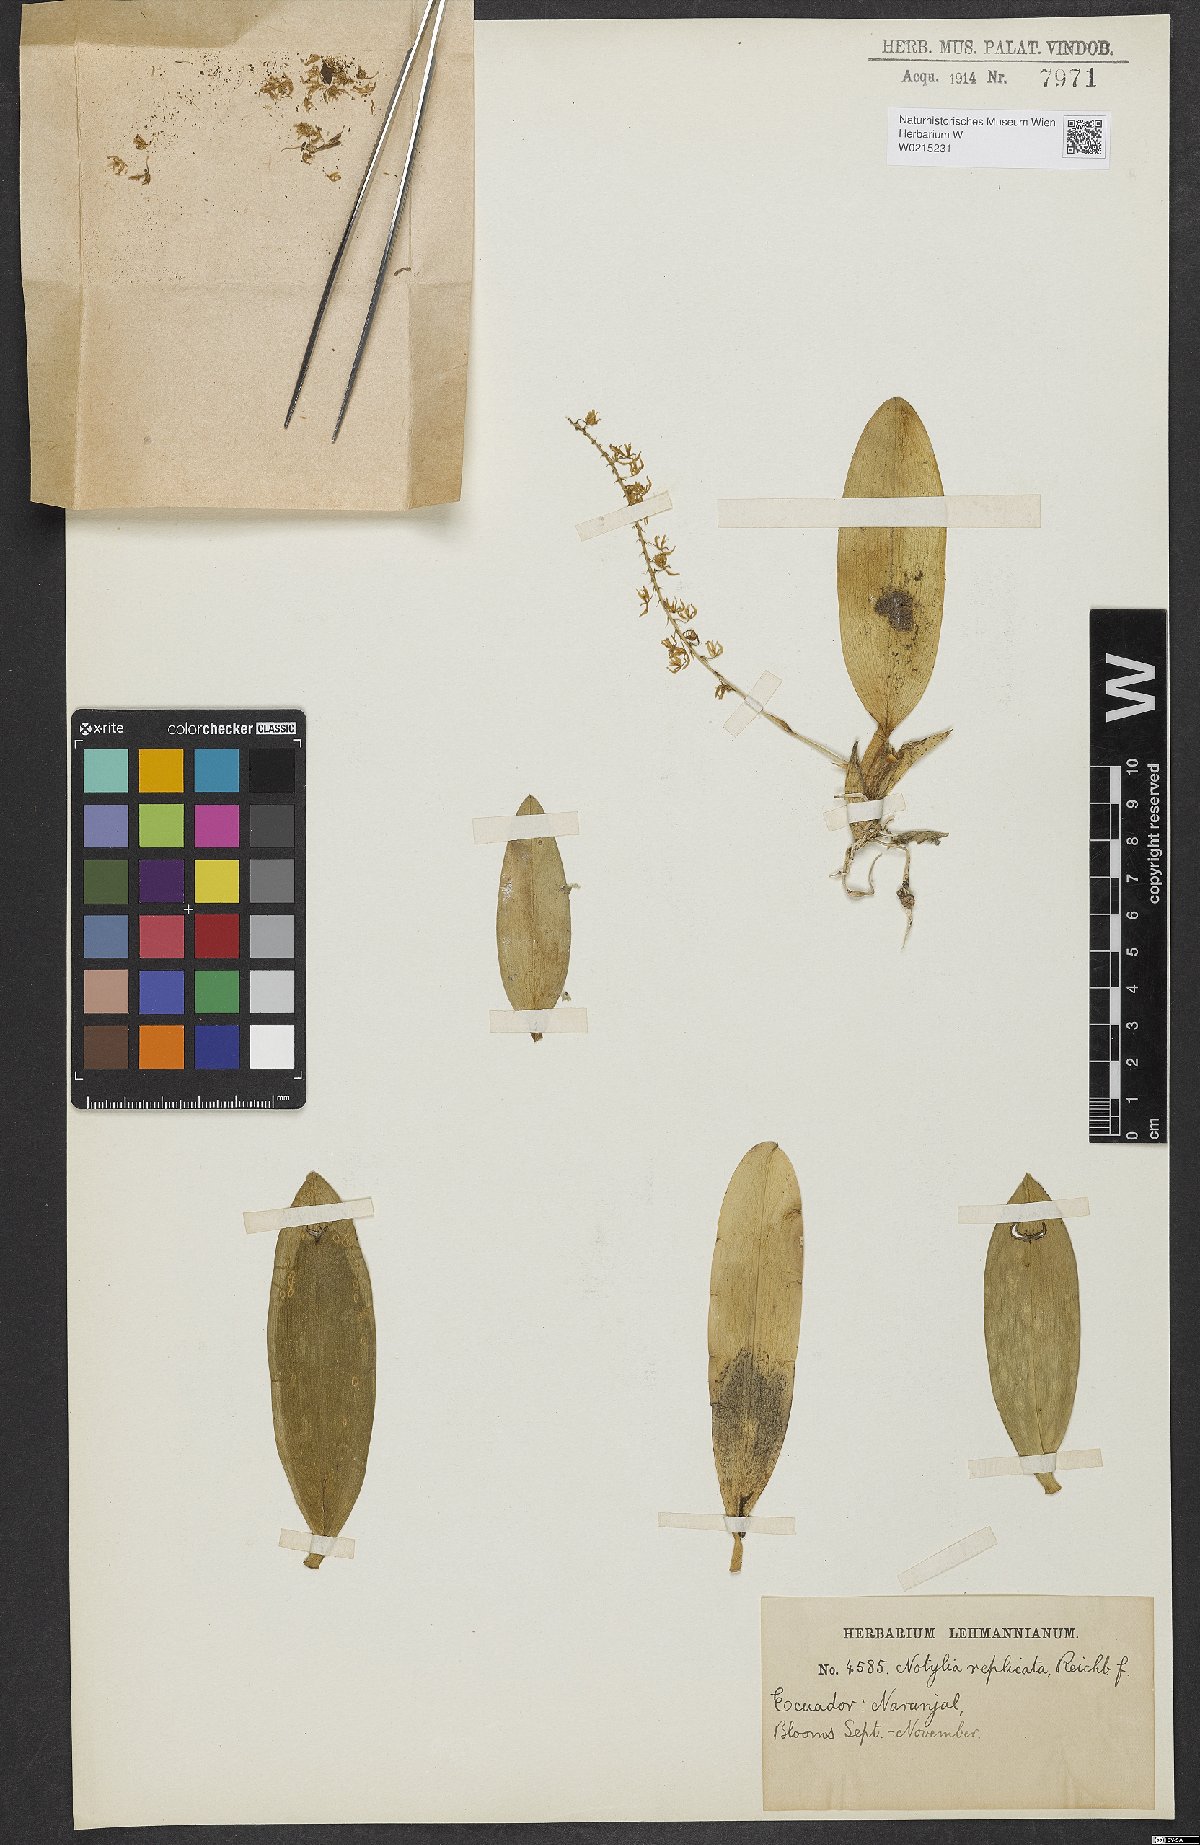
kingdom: Plantae
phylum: Tracheophyta
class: Liliopsida
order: Asparagales
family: Orchidaceae
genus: Notylia
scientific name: Notylia replicata
